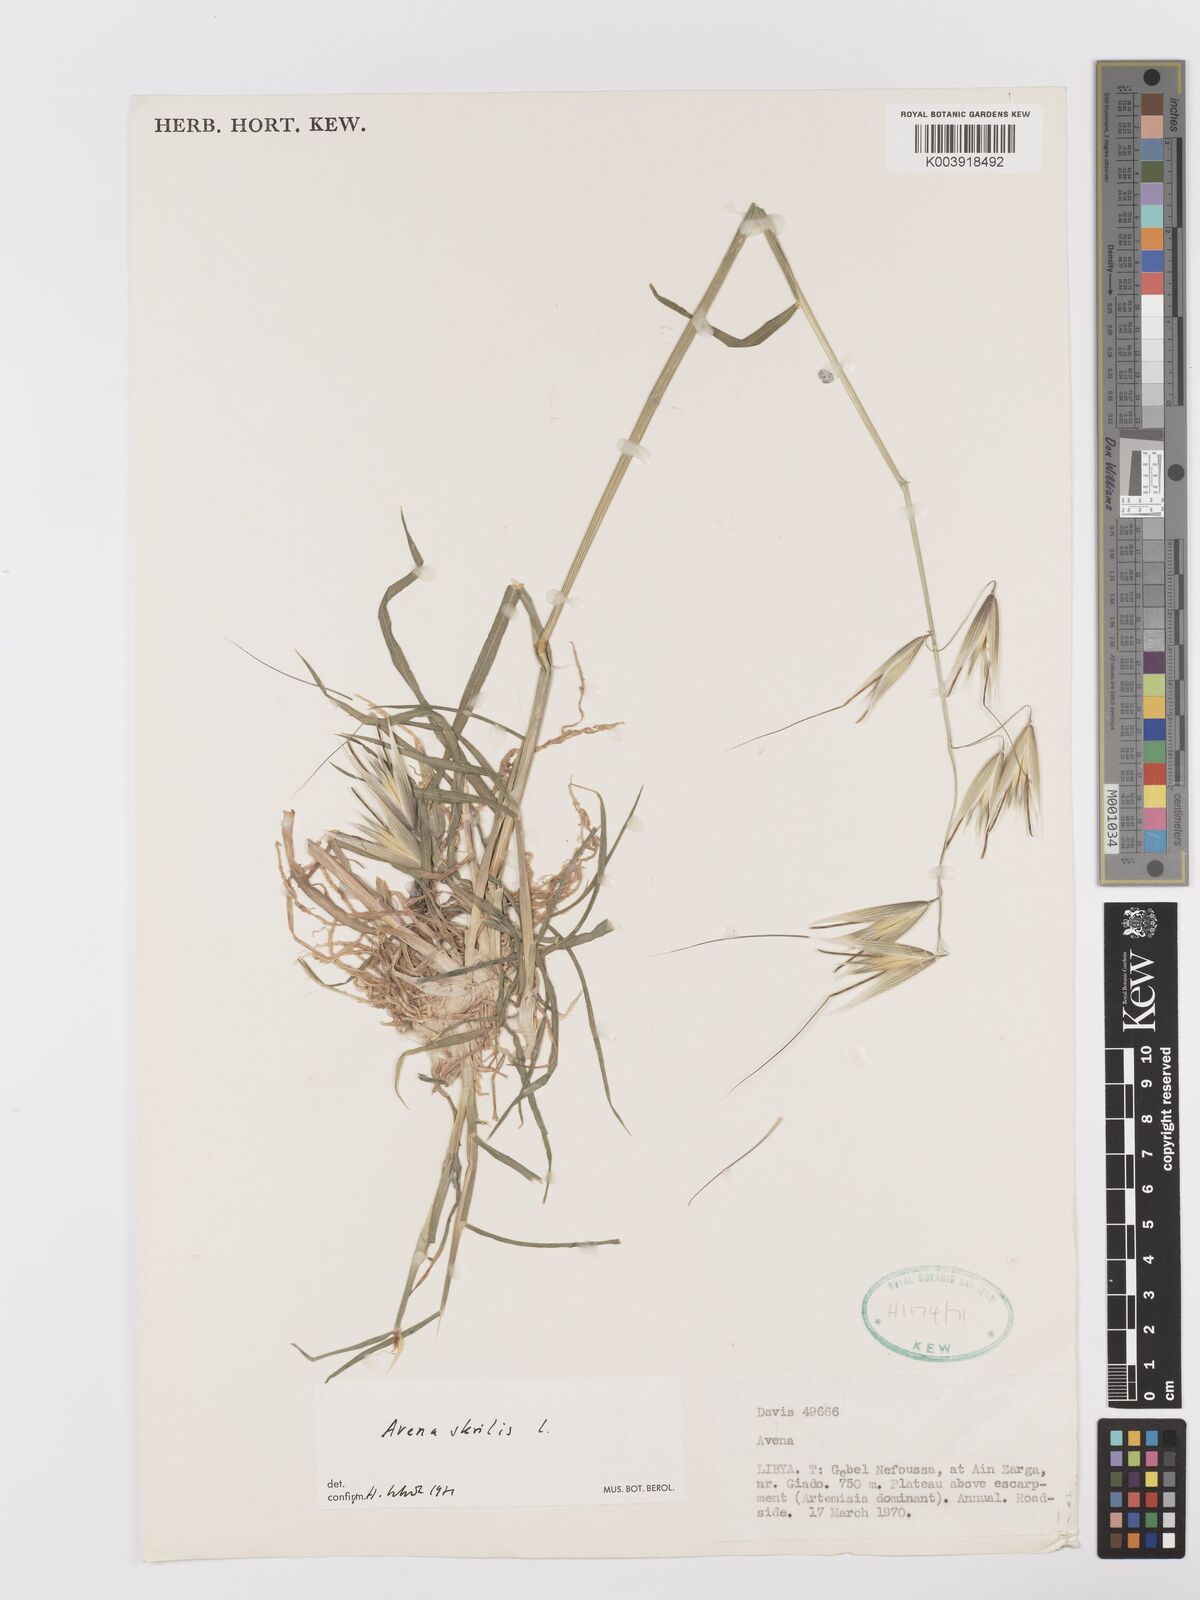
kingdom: Plantae
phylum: Tracheophyta
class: Liliopsida
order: Poales
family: Poaceae
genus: Avena
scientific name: Avena sterilis
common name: Animated oat
